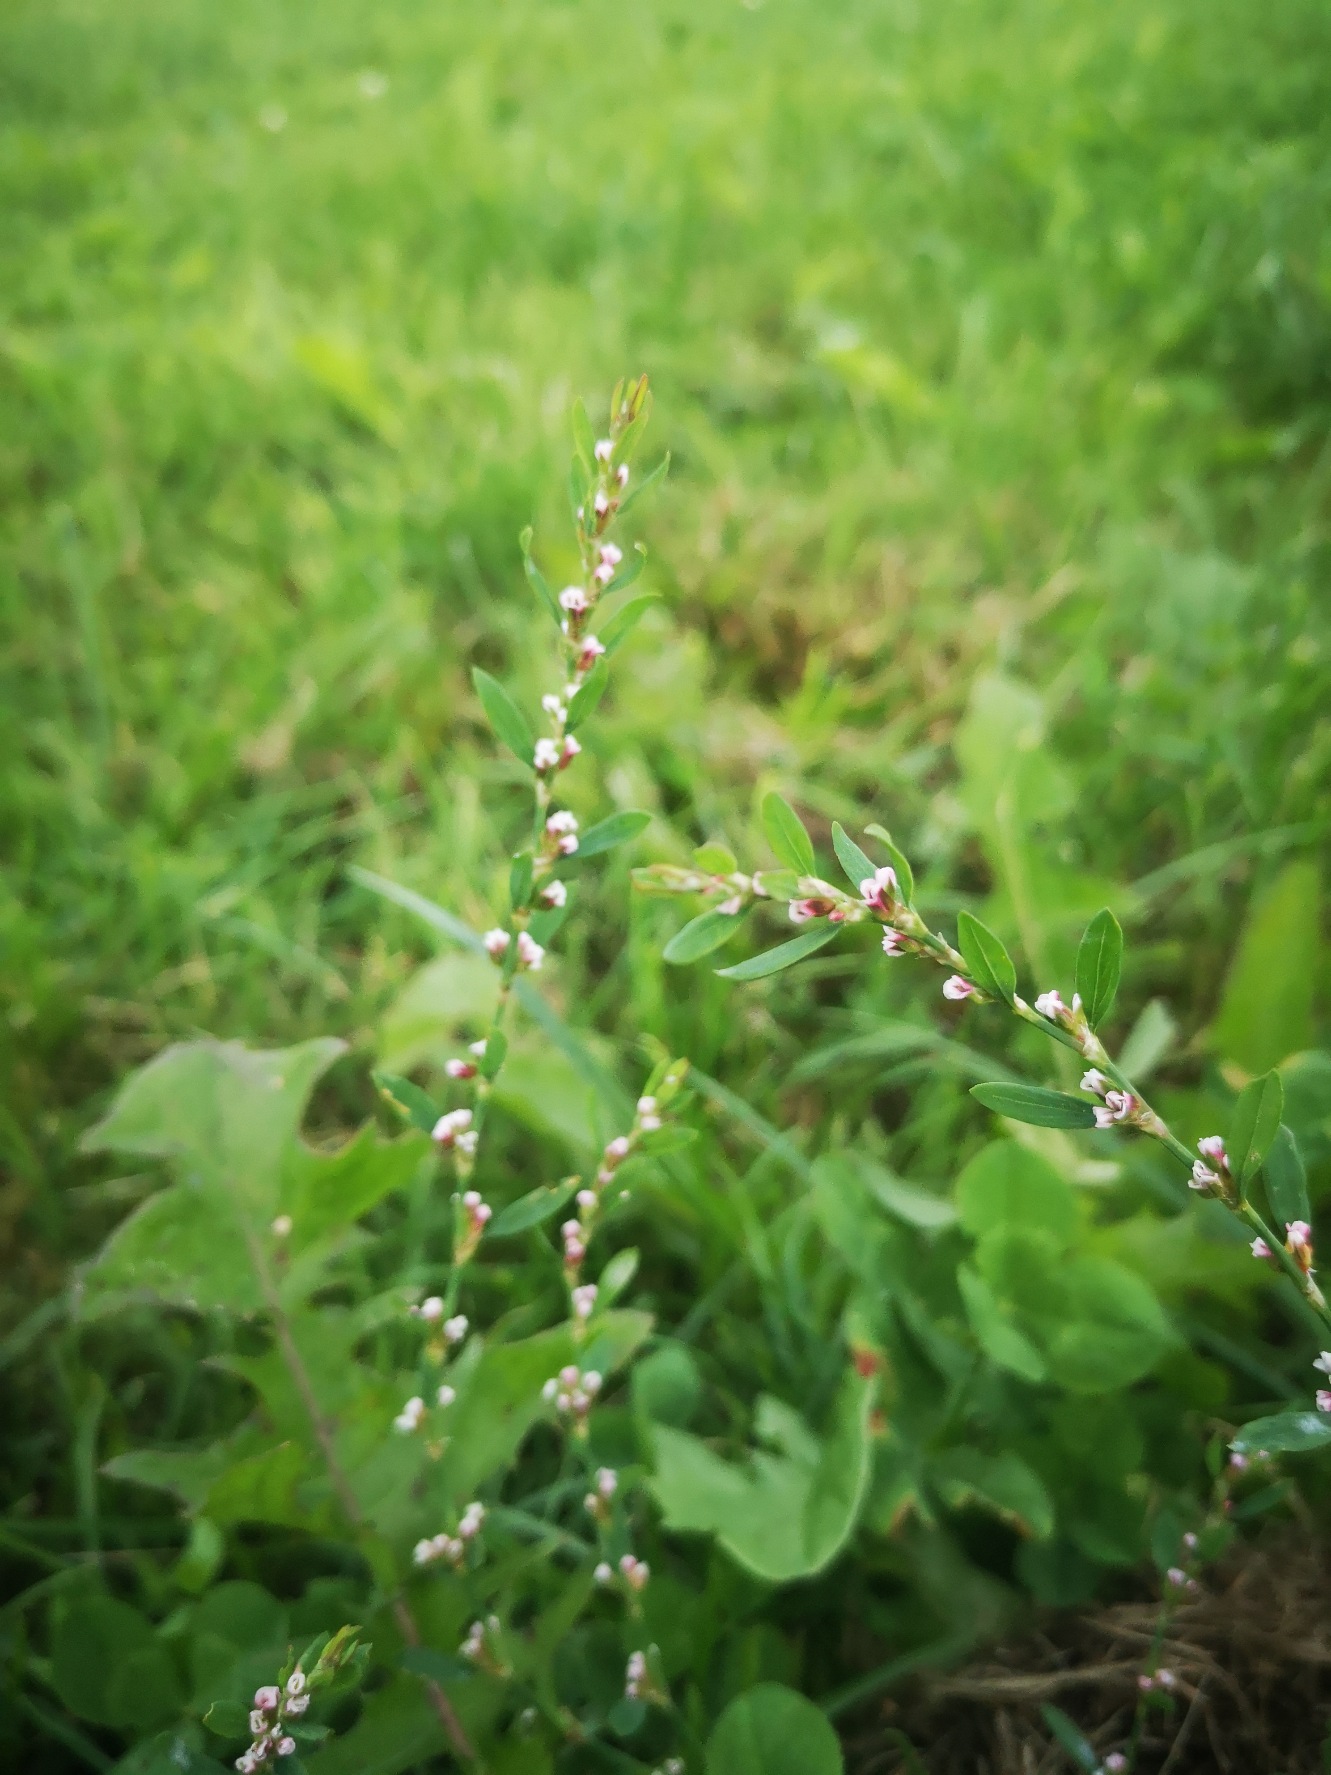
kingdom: Plantae
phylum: Tracheophyta
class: Magnoliopsida
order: Caryophyllales
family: Polygonaceae
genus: Polygonum
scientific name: Polygonum aviculare
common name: Vej-pileurt
